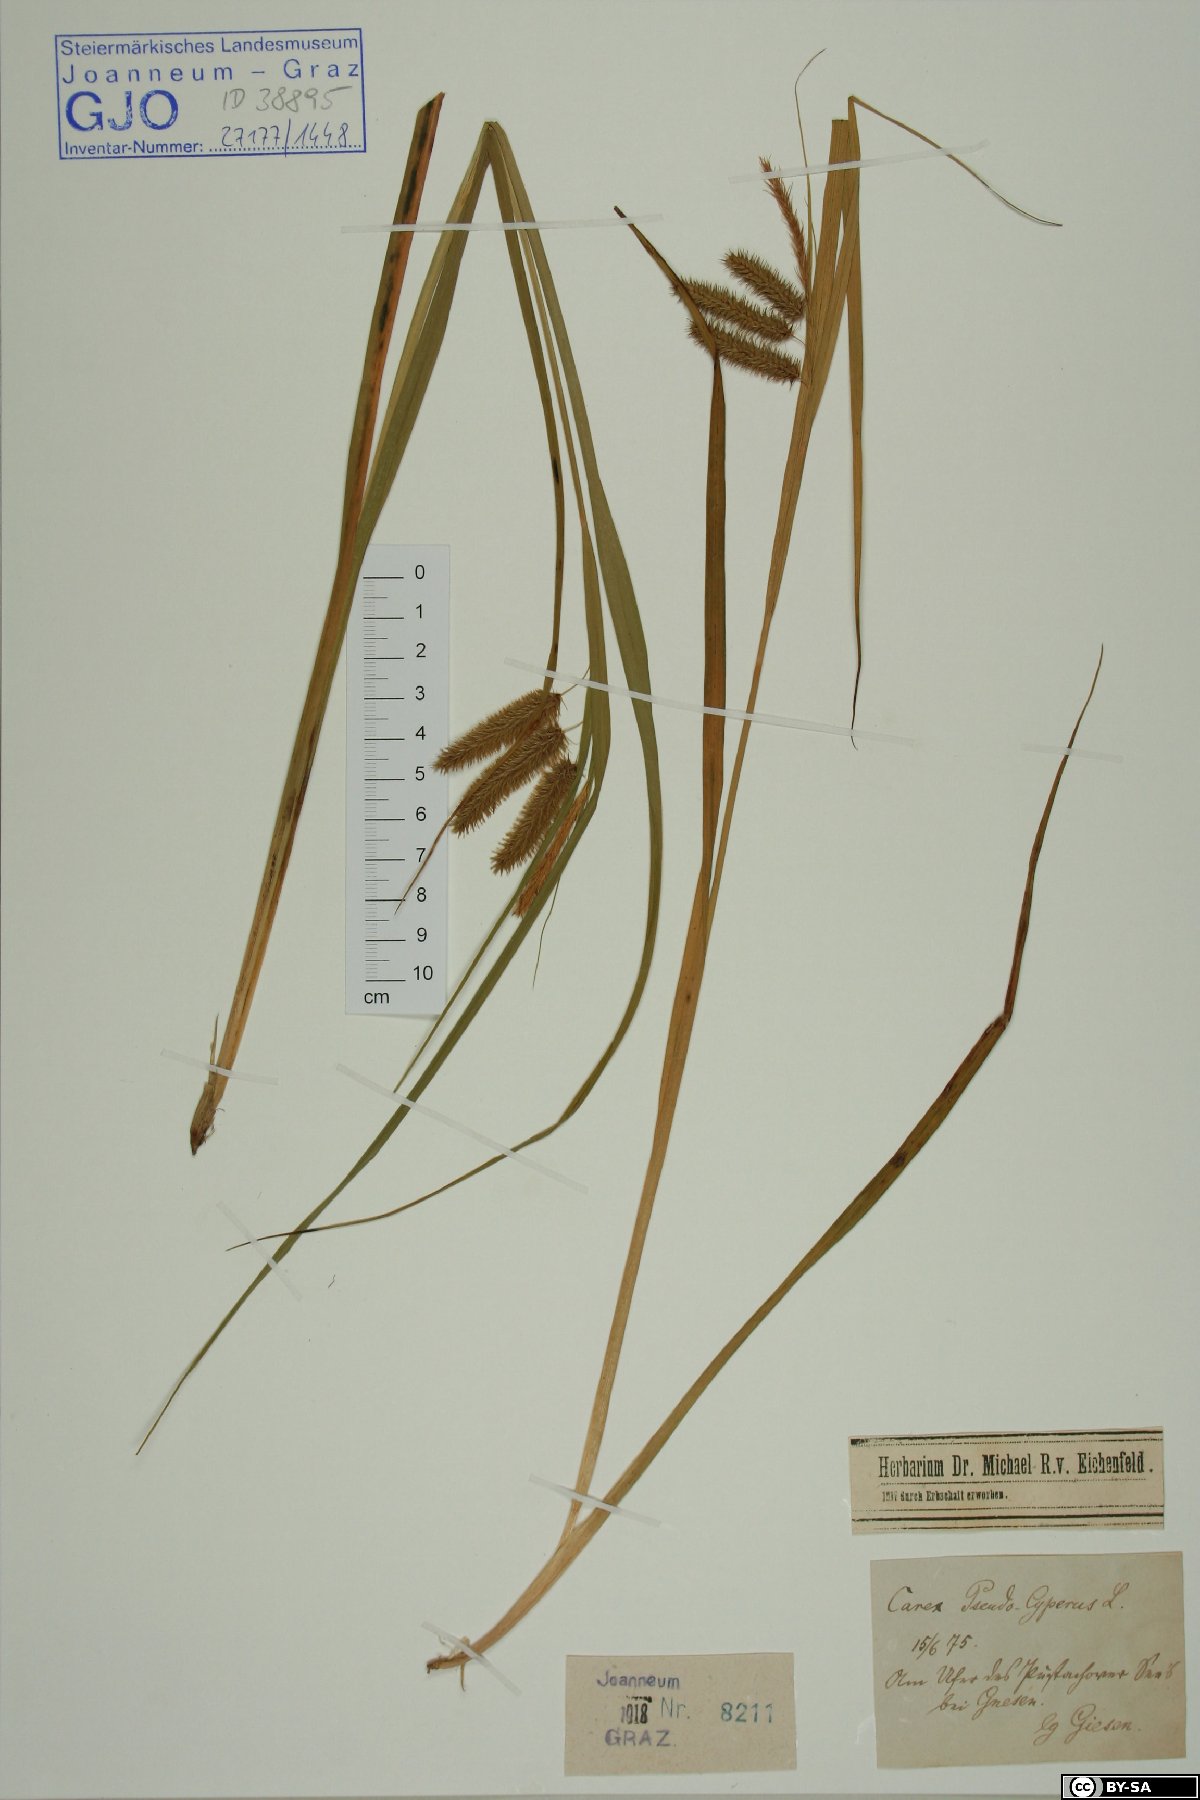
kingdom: Plantae
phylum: Tracheophyta
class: Liliopsida
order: Poales
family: Cyperaceae
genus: Carex
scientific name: Carex pseudocyperus
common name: Cyperus sedge
